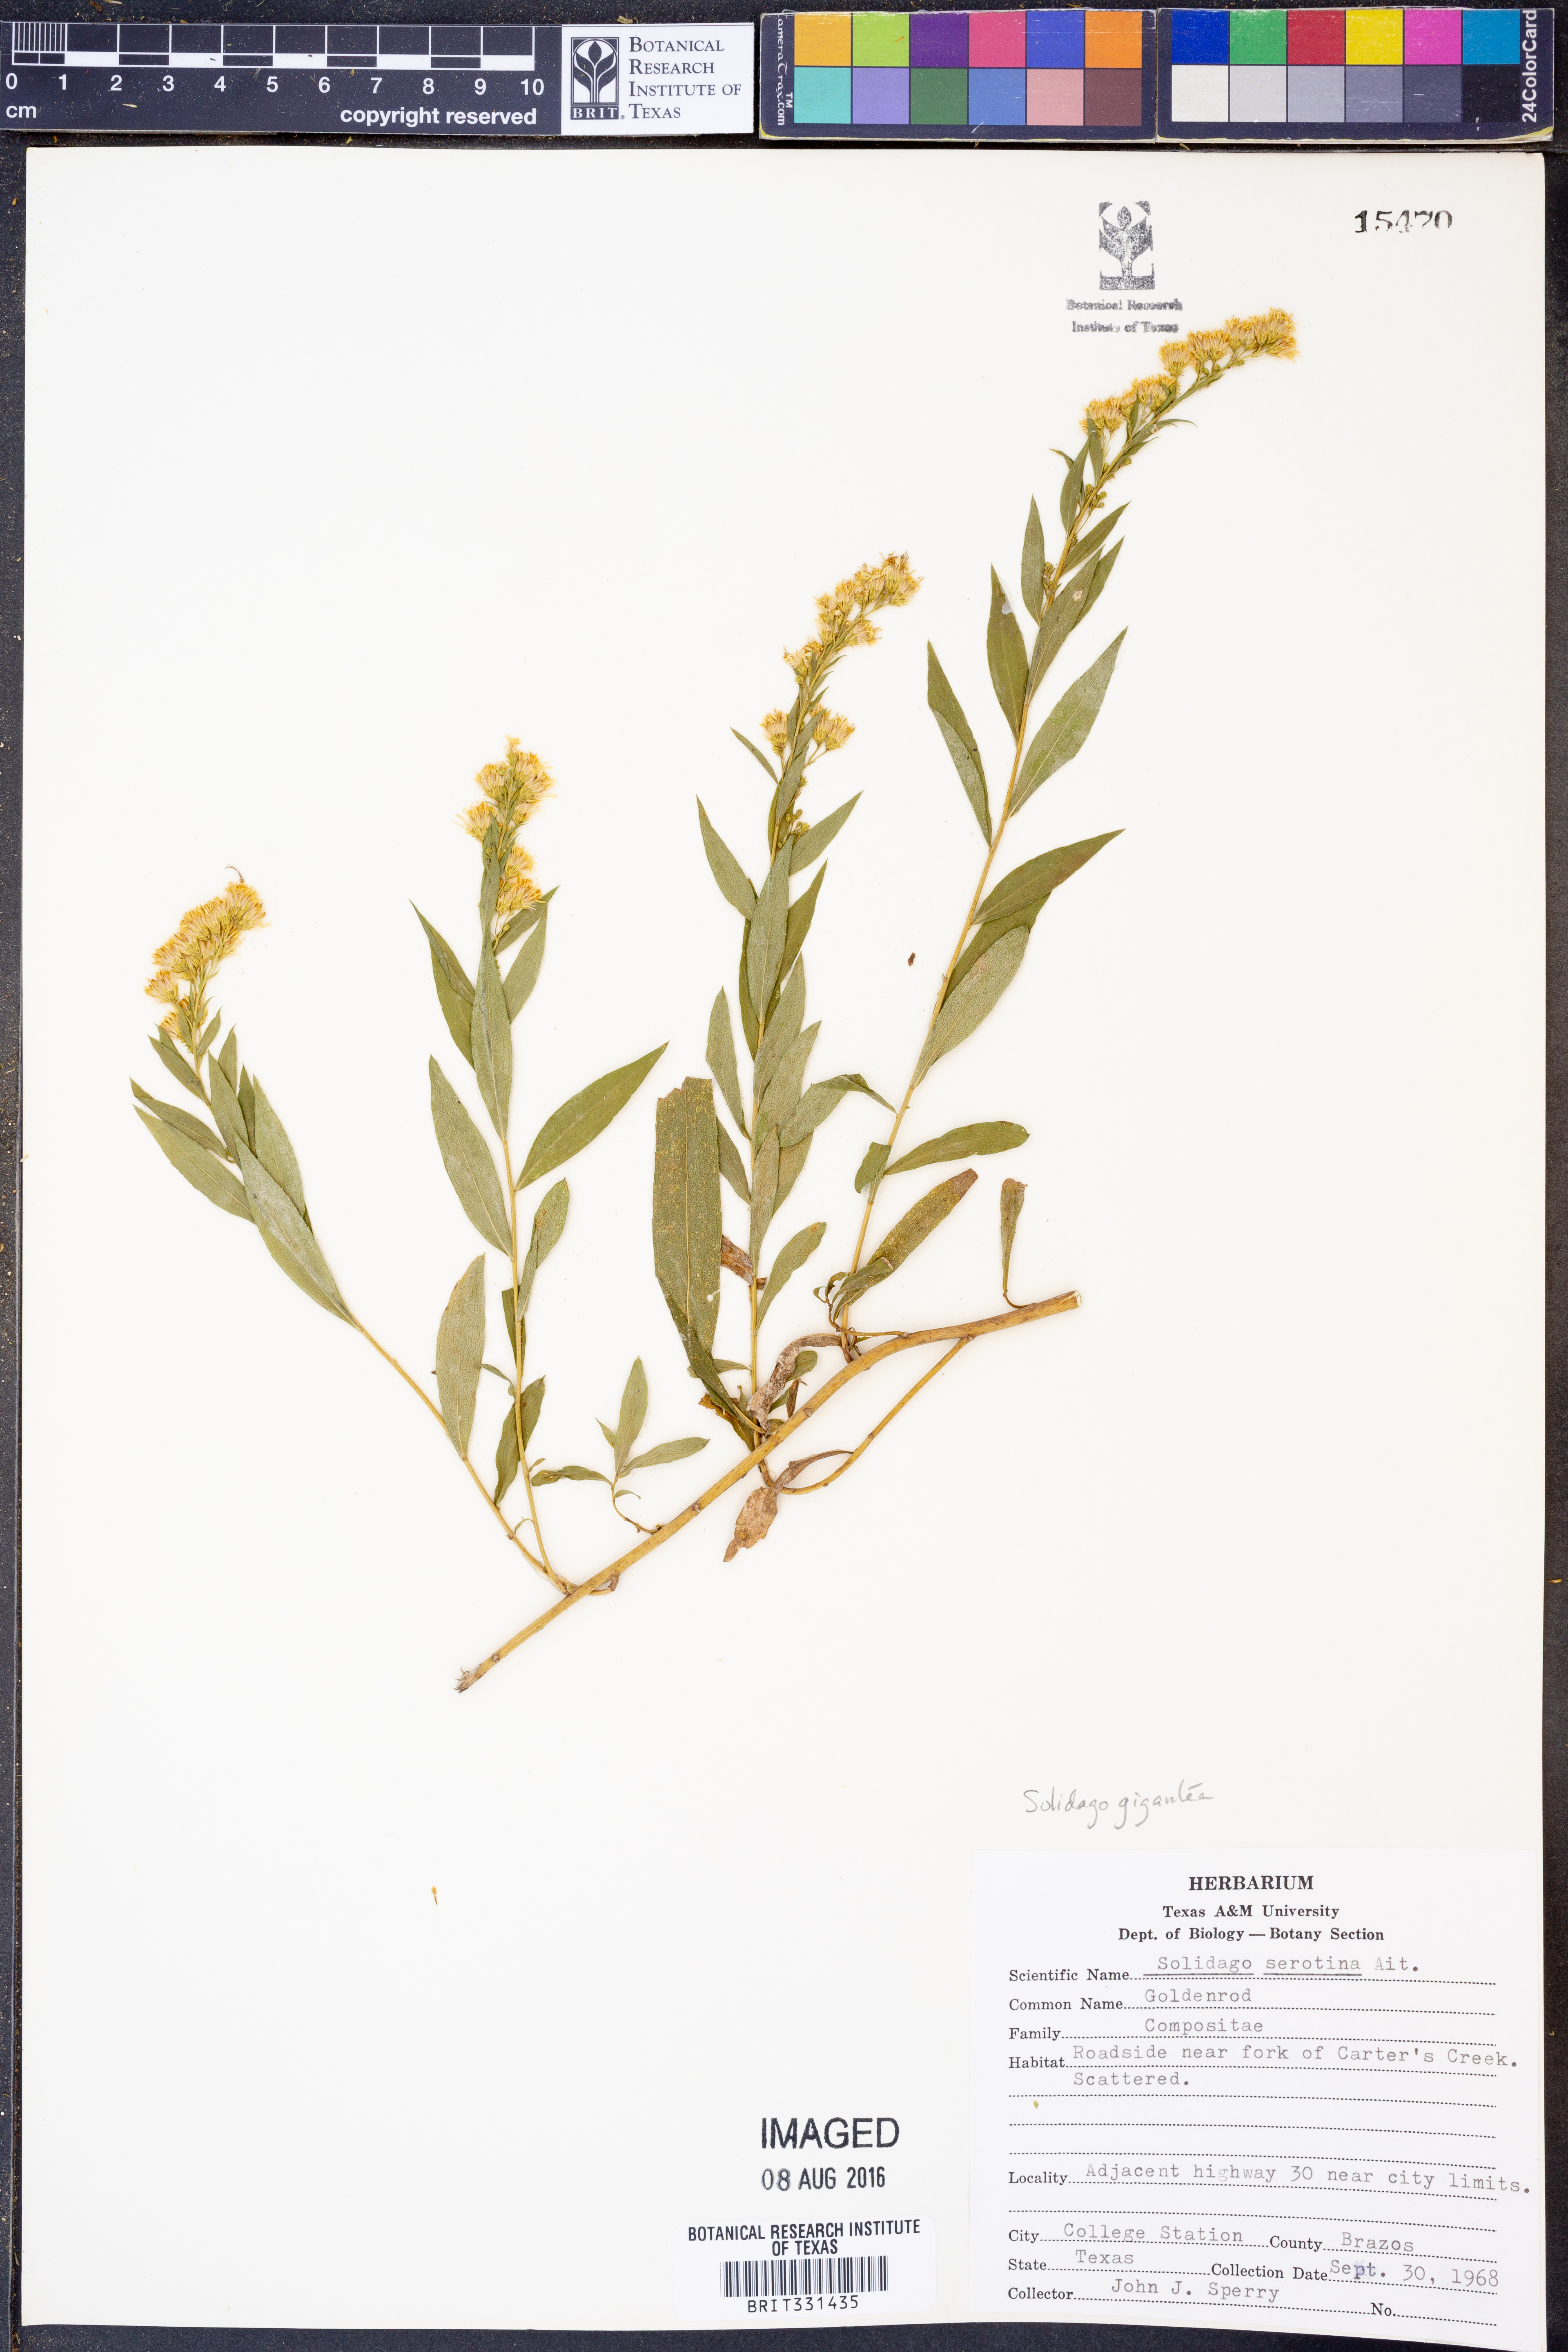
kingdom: Plantae
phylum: Tracheophyta
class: Magnoliopsida
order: Asterales
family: Asteraceae
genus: Solidago
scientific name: Solidago gigantea
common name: Giant goldenrod
